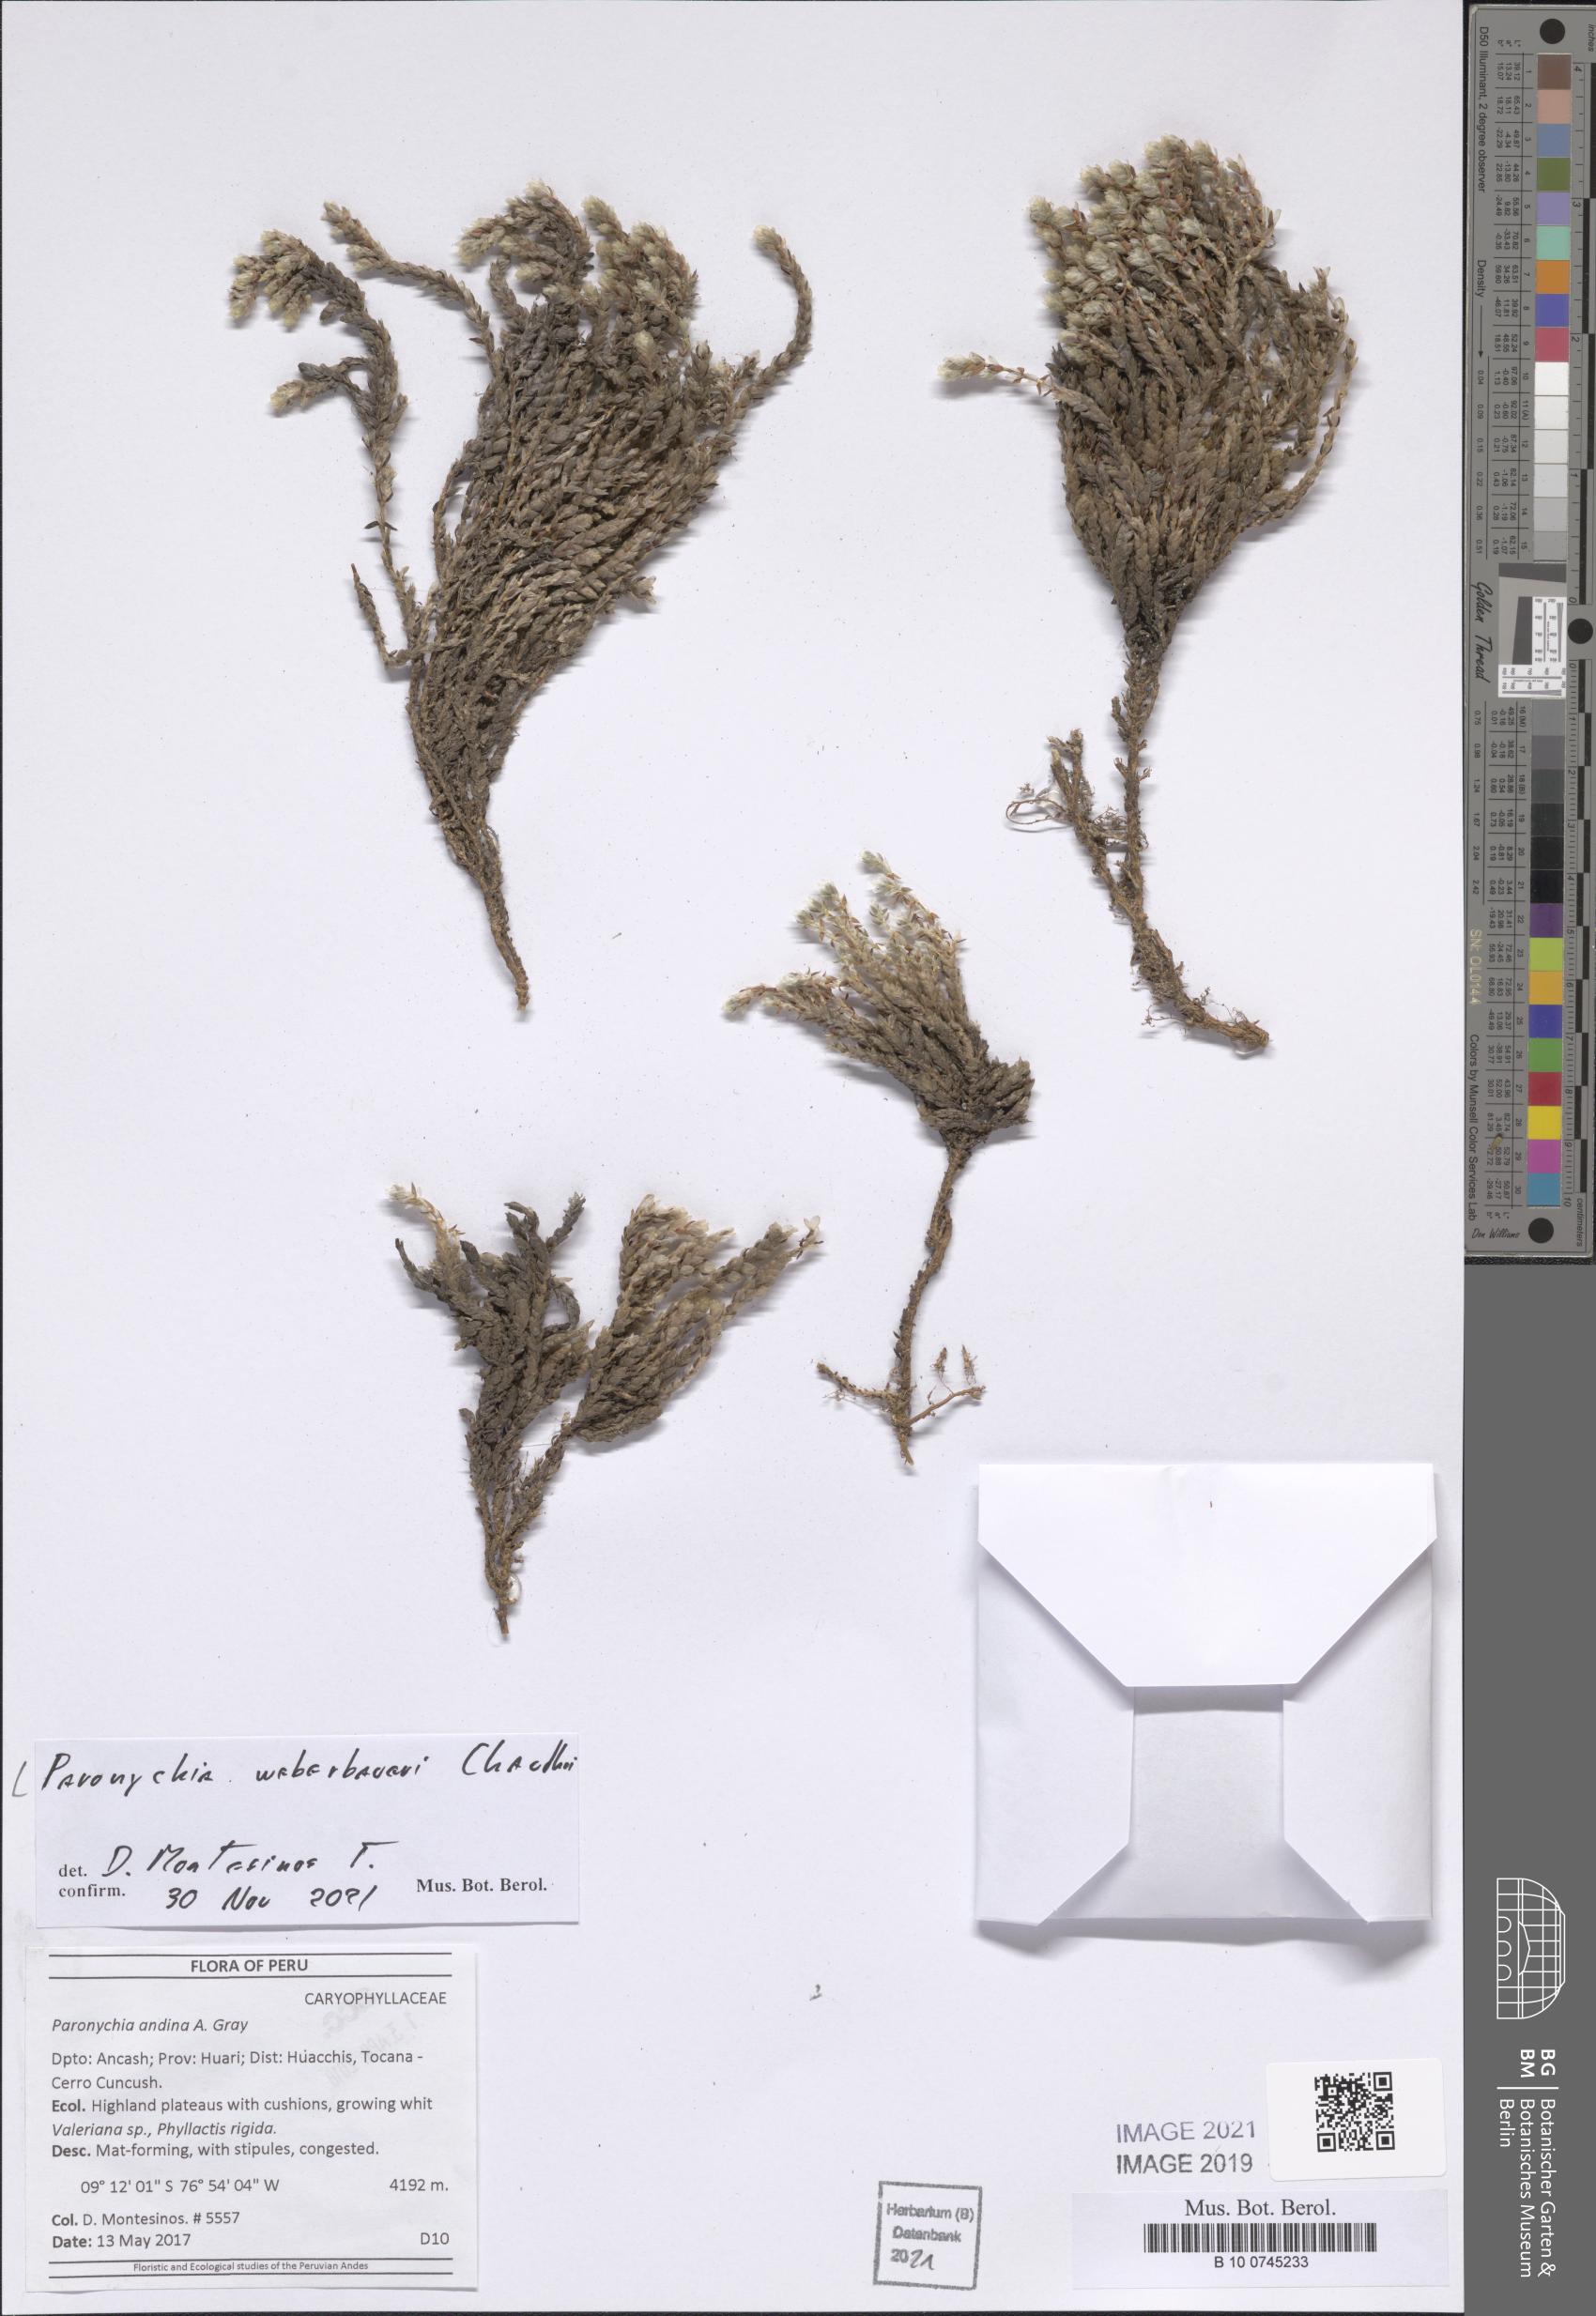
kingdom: Plantae
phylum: Tracheophyta
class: Magnoliopsida
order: Caryophyllales
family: Caryophyllaceae
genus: Paronychia
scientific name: Paronychia weberbaueri
